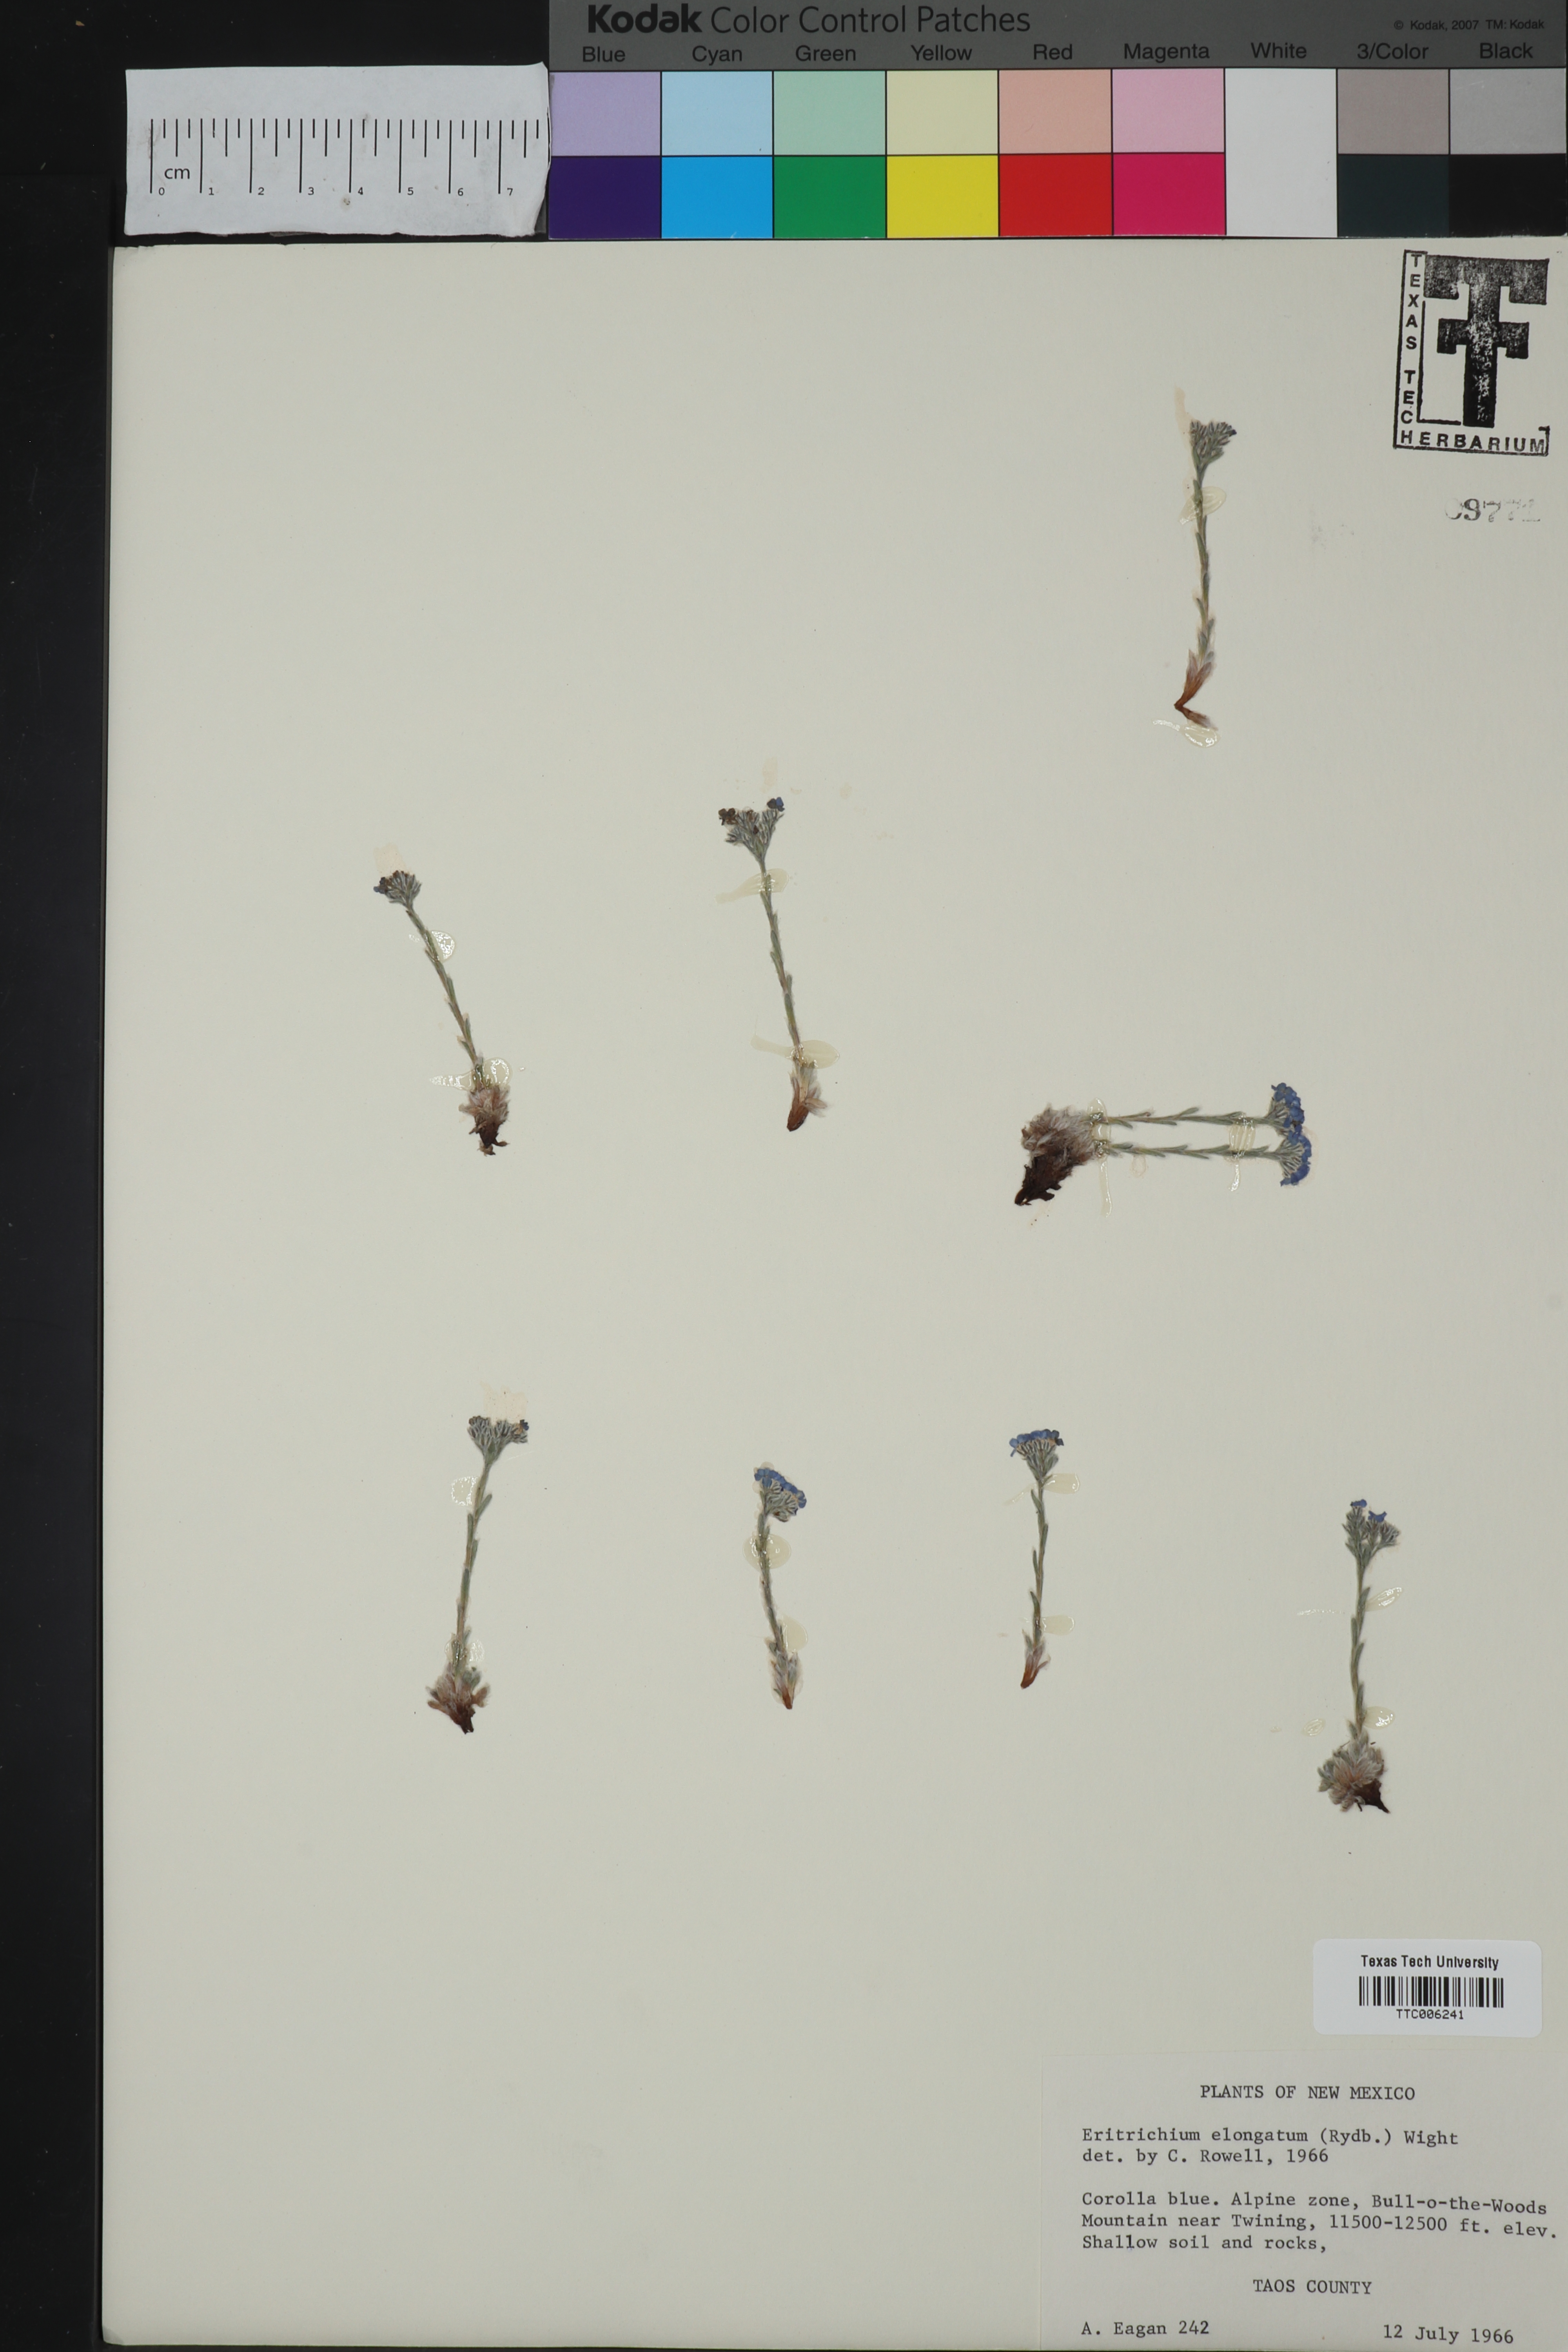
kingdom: Plantae
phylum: Tracheophyta
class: Magnoliopsida
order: Boraginales
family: Boraginaceae
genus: Eritrichium
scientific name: Eritrichium argenteum
